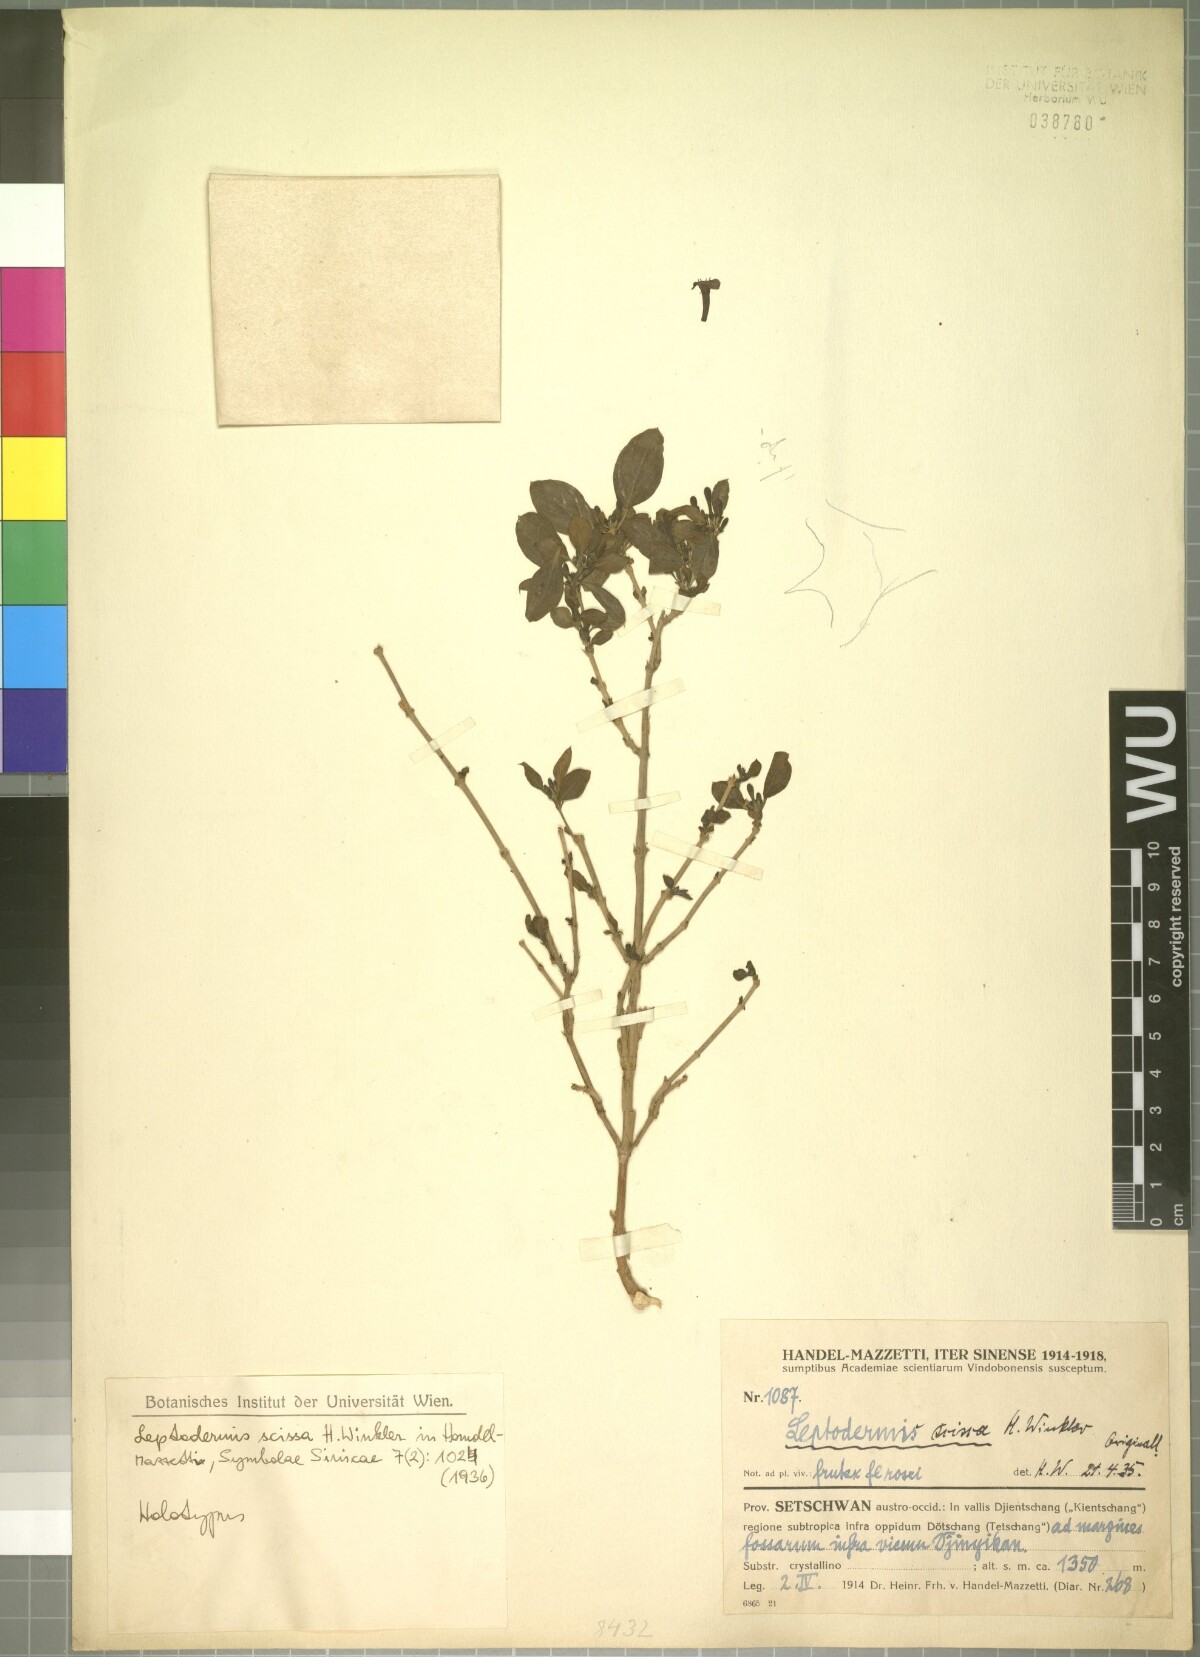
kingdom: Plantae
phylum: Tracheophyta
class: Magnoliopsida
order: Gentianales
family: Rubiaceae
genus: Leptodermis
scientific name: Leptodermis scissa
